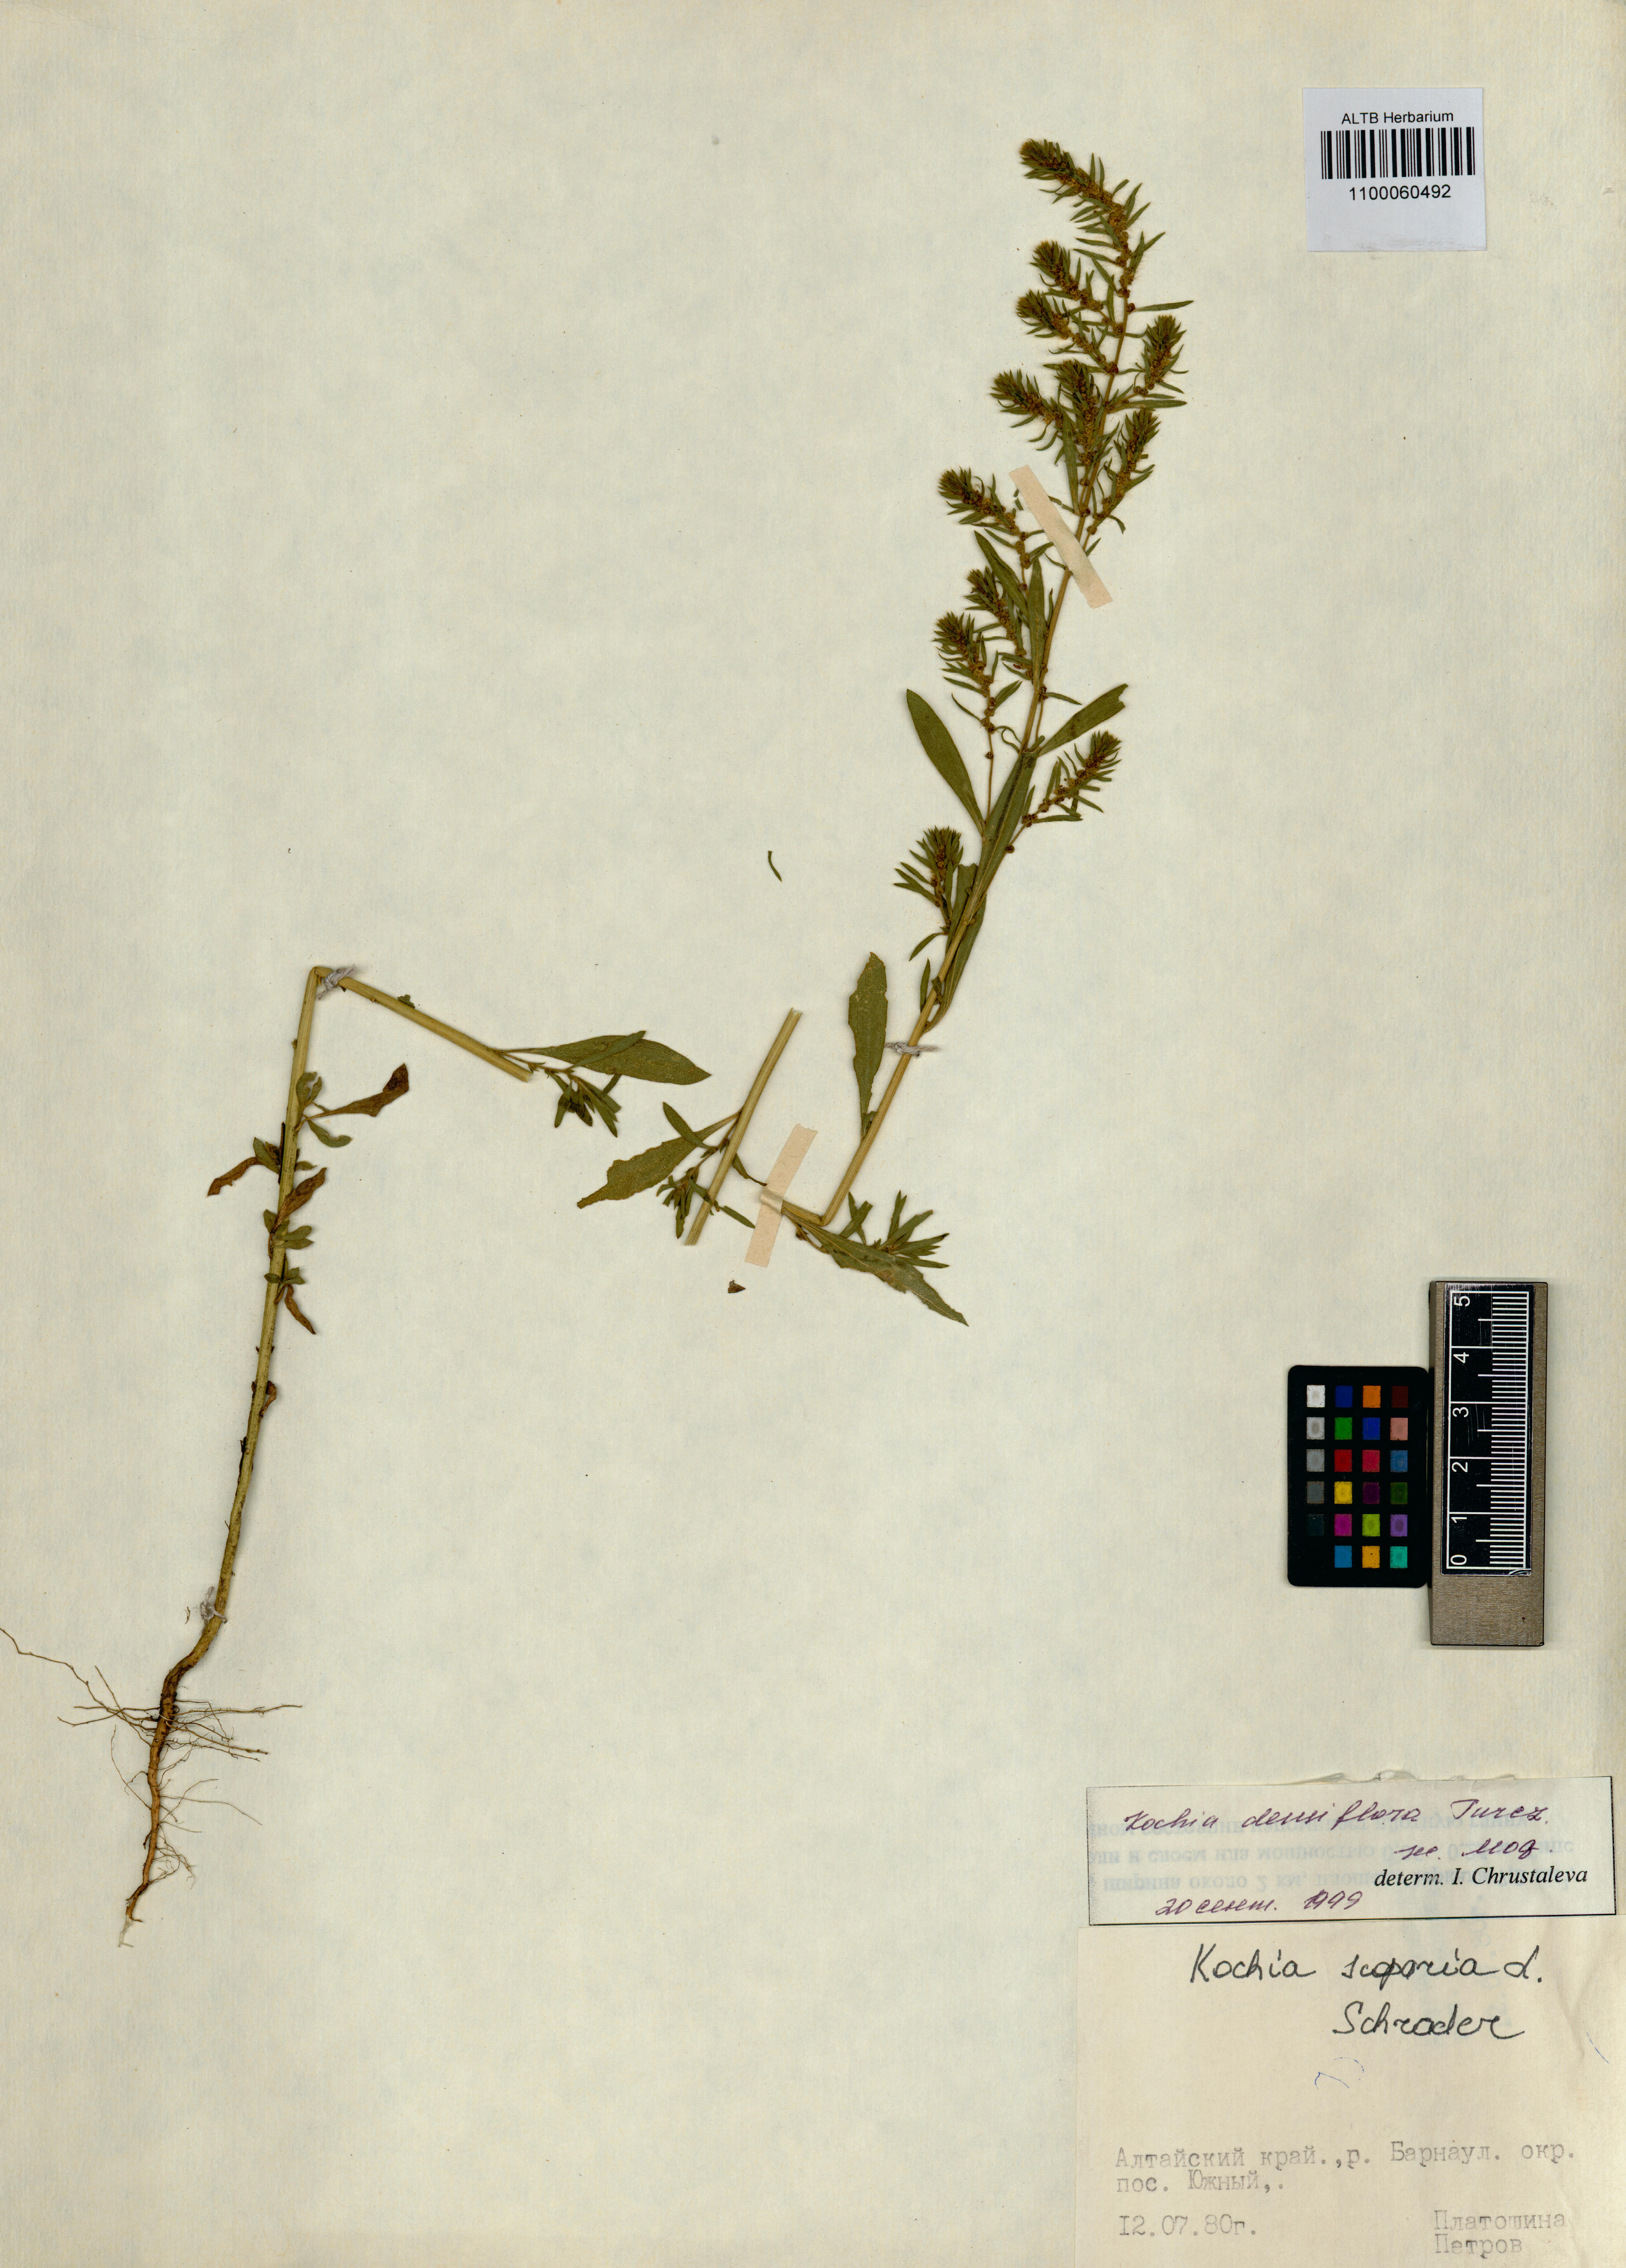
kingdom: Plantae
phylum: Tracheophyta
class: Magnoliopsida
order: Caryophyllales
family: Amaranthaceae
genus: Bassia
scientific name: Bassia scoparia
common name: Belvedere
